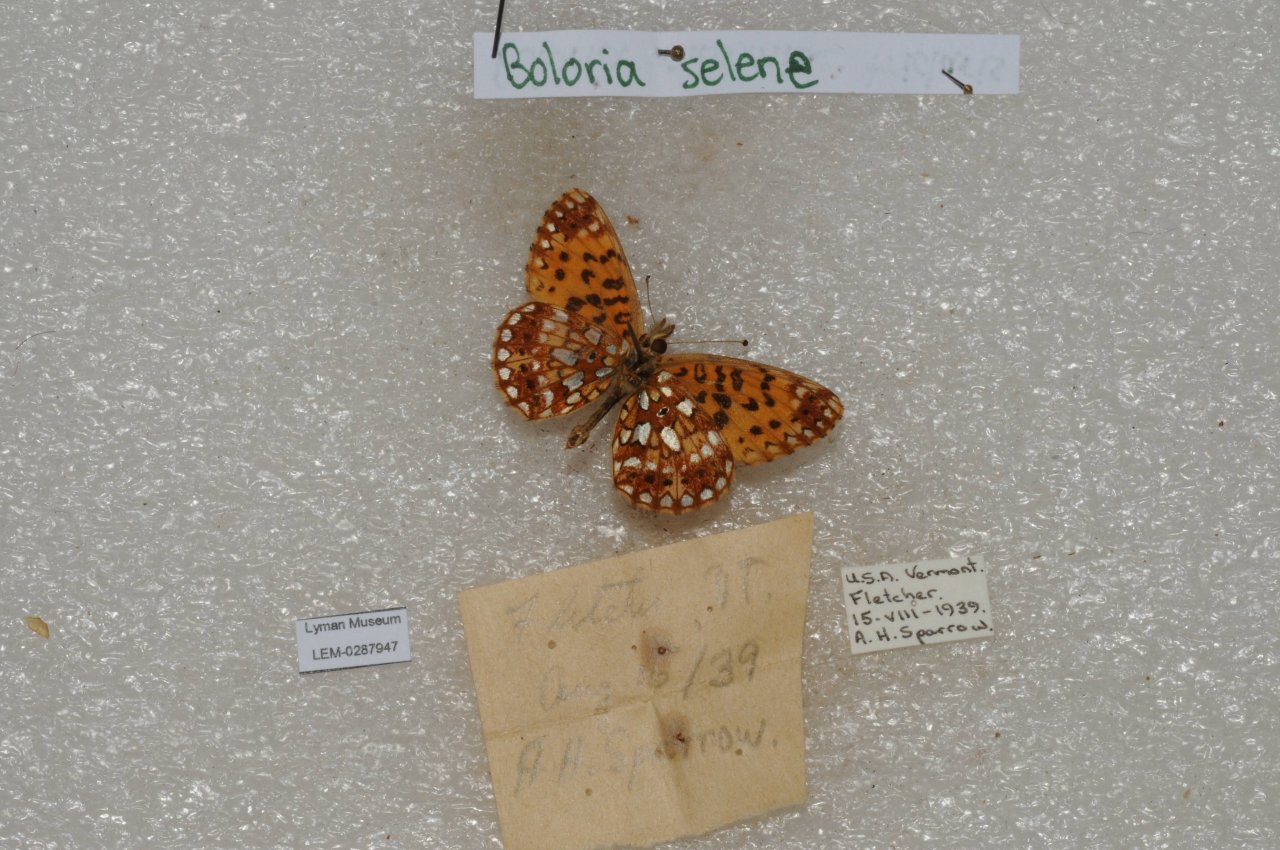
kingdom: Animalia
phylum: Arthropoda
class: Insecta
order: Lepidoptera
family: Nymphalidae
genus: Boloria
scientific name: Boloria selene
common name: Silver-bordered Fritillary
